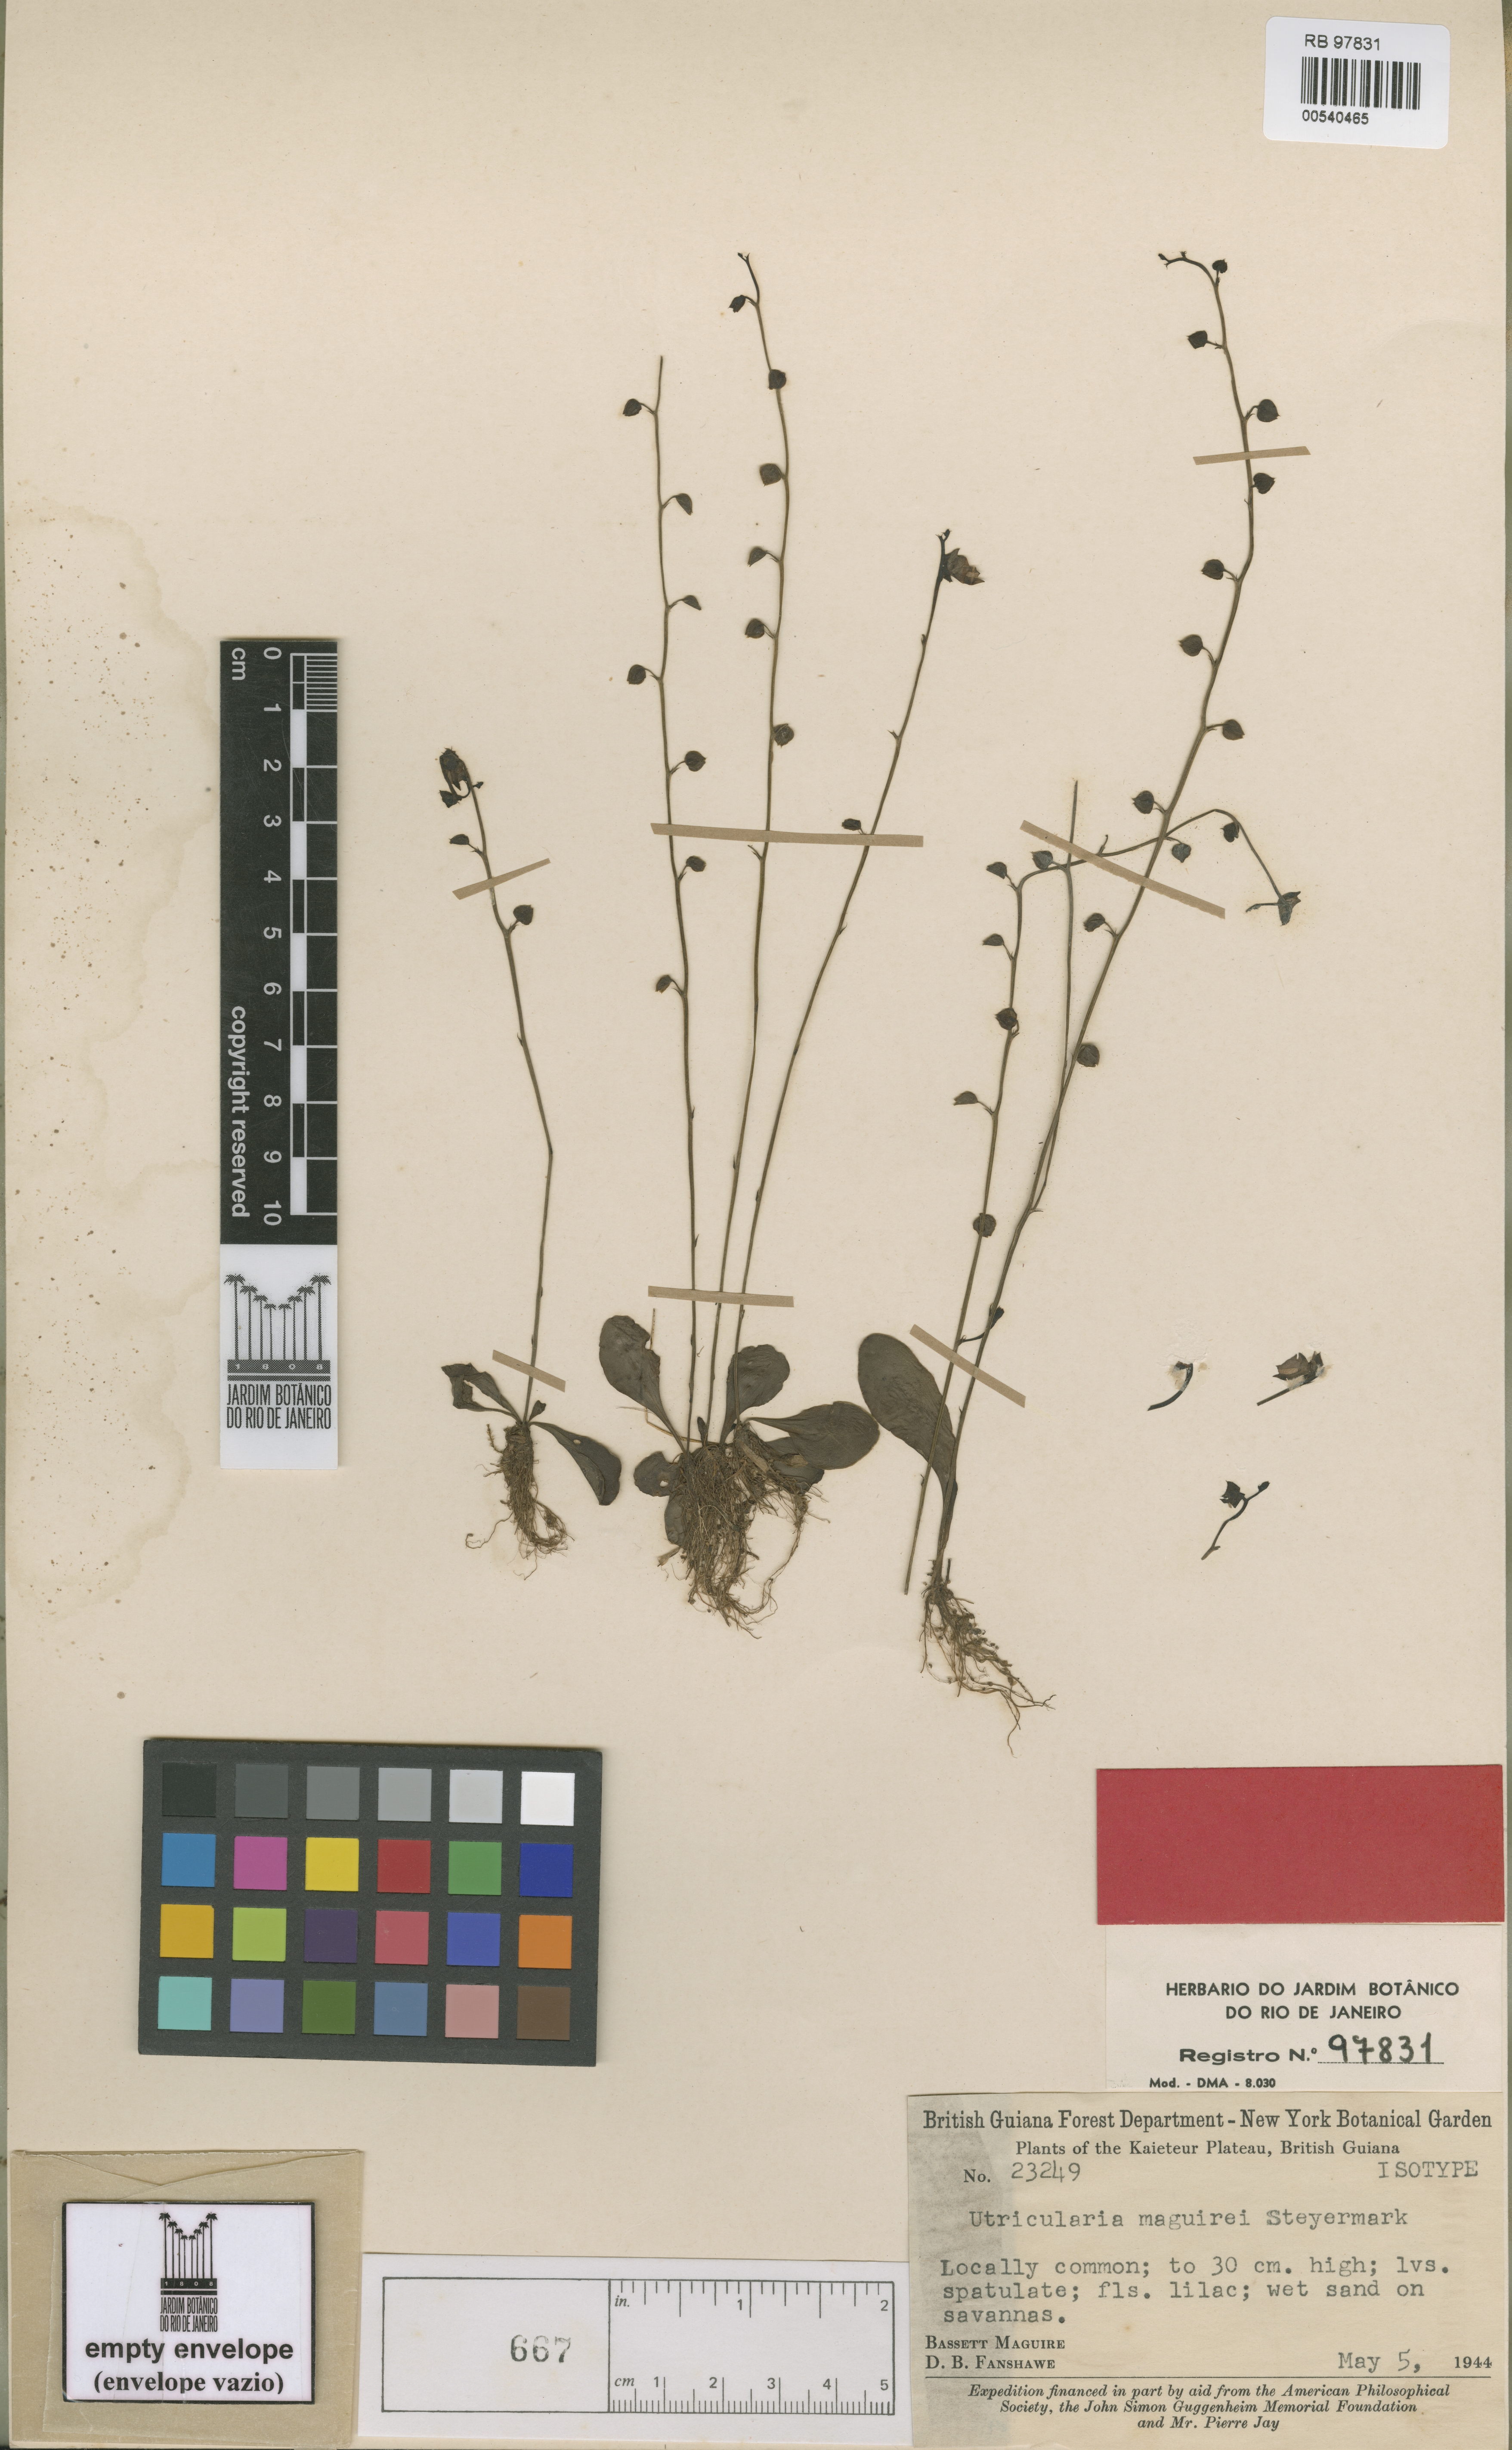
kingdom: Plantae
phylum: Tracheophyta
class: Magnoliopsida
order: Lamiales
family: Lentibulariaceae
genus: Utricularia
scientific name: Utricularia calycifida
